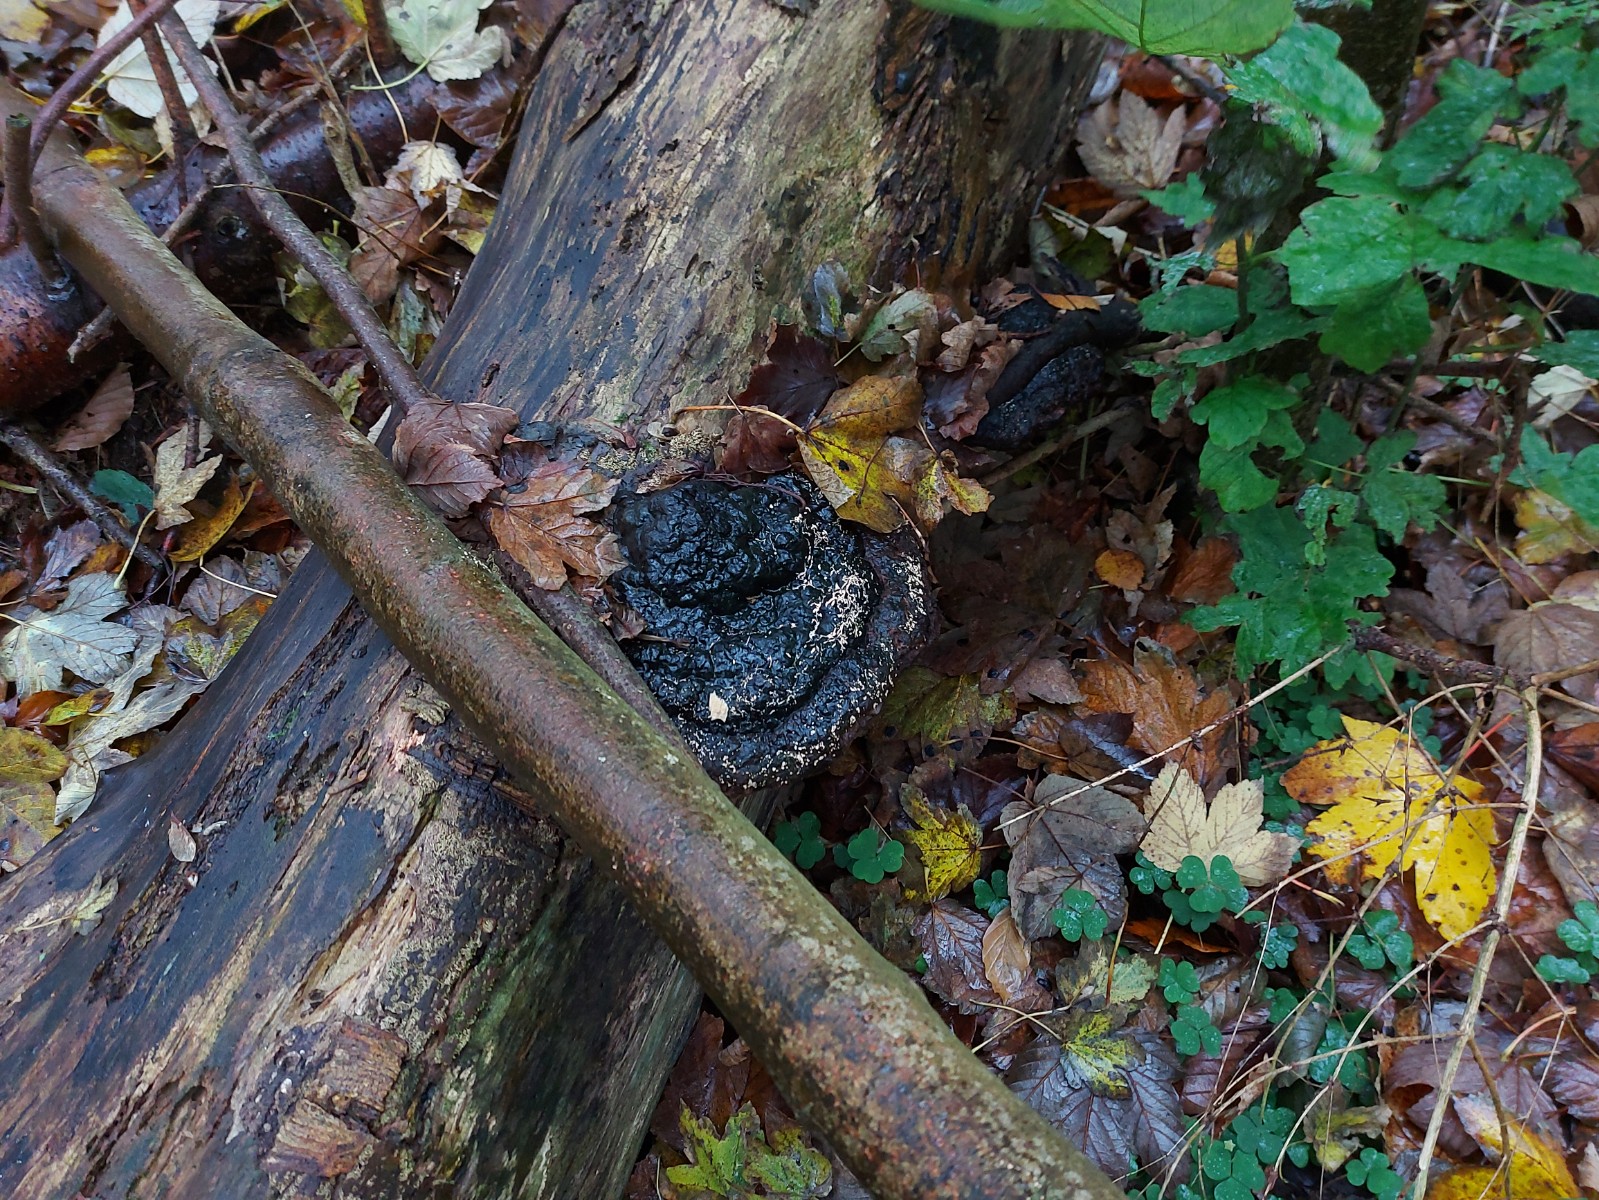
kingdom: Fungi
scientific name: Fungi
